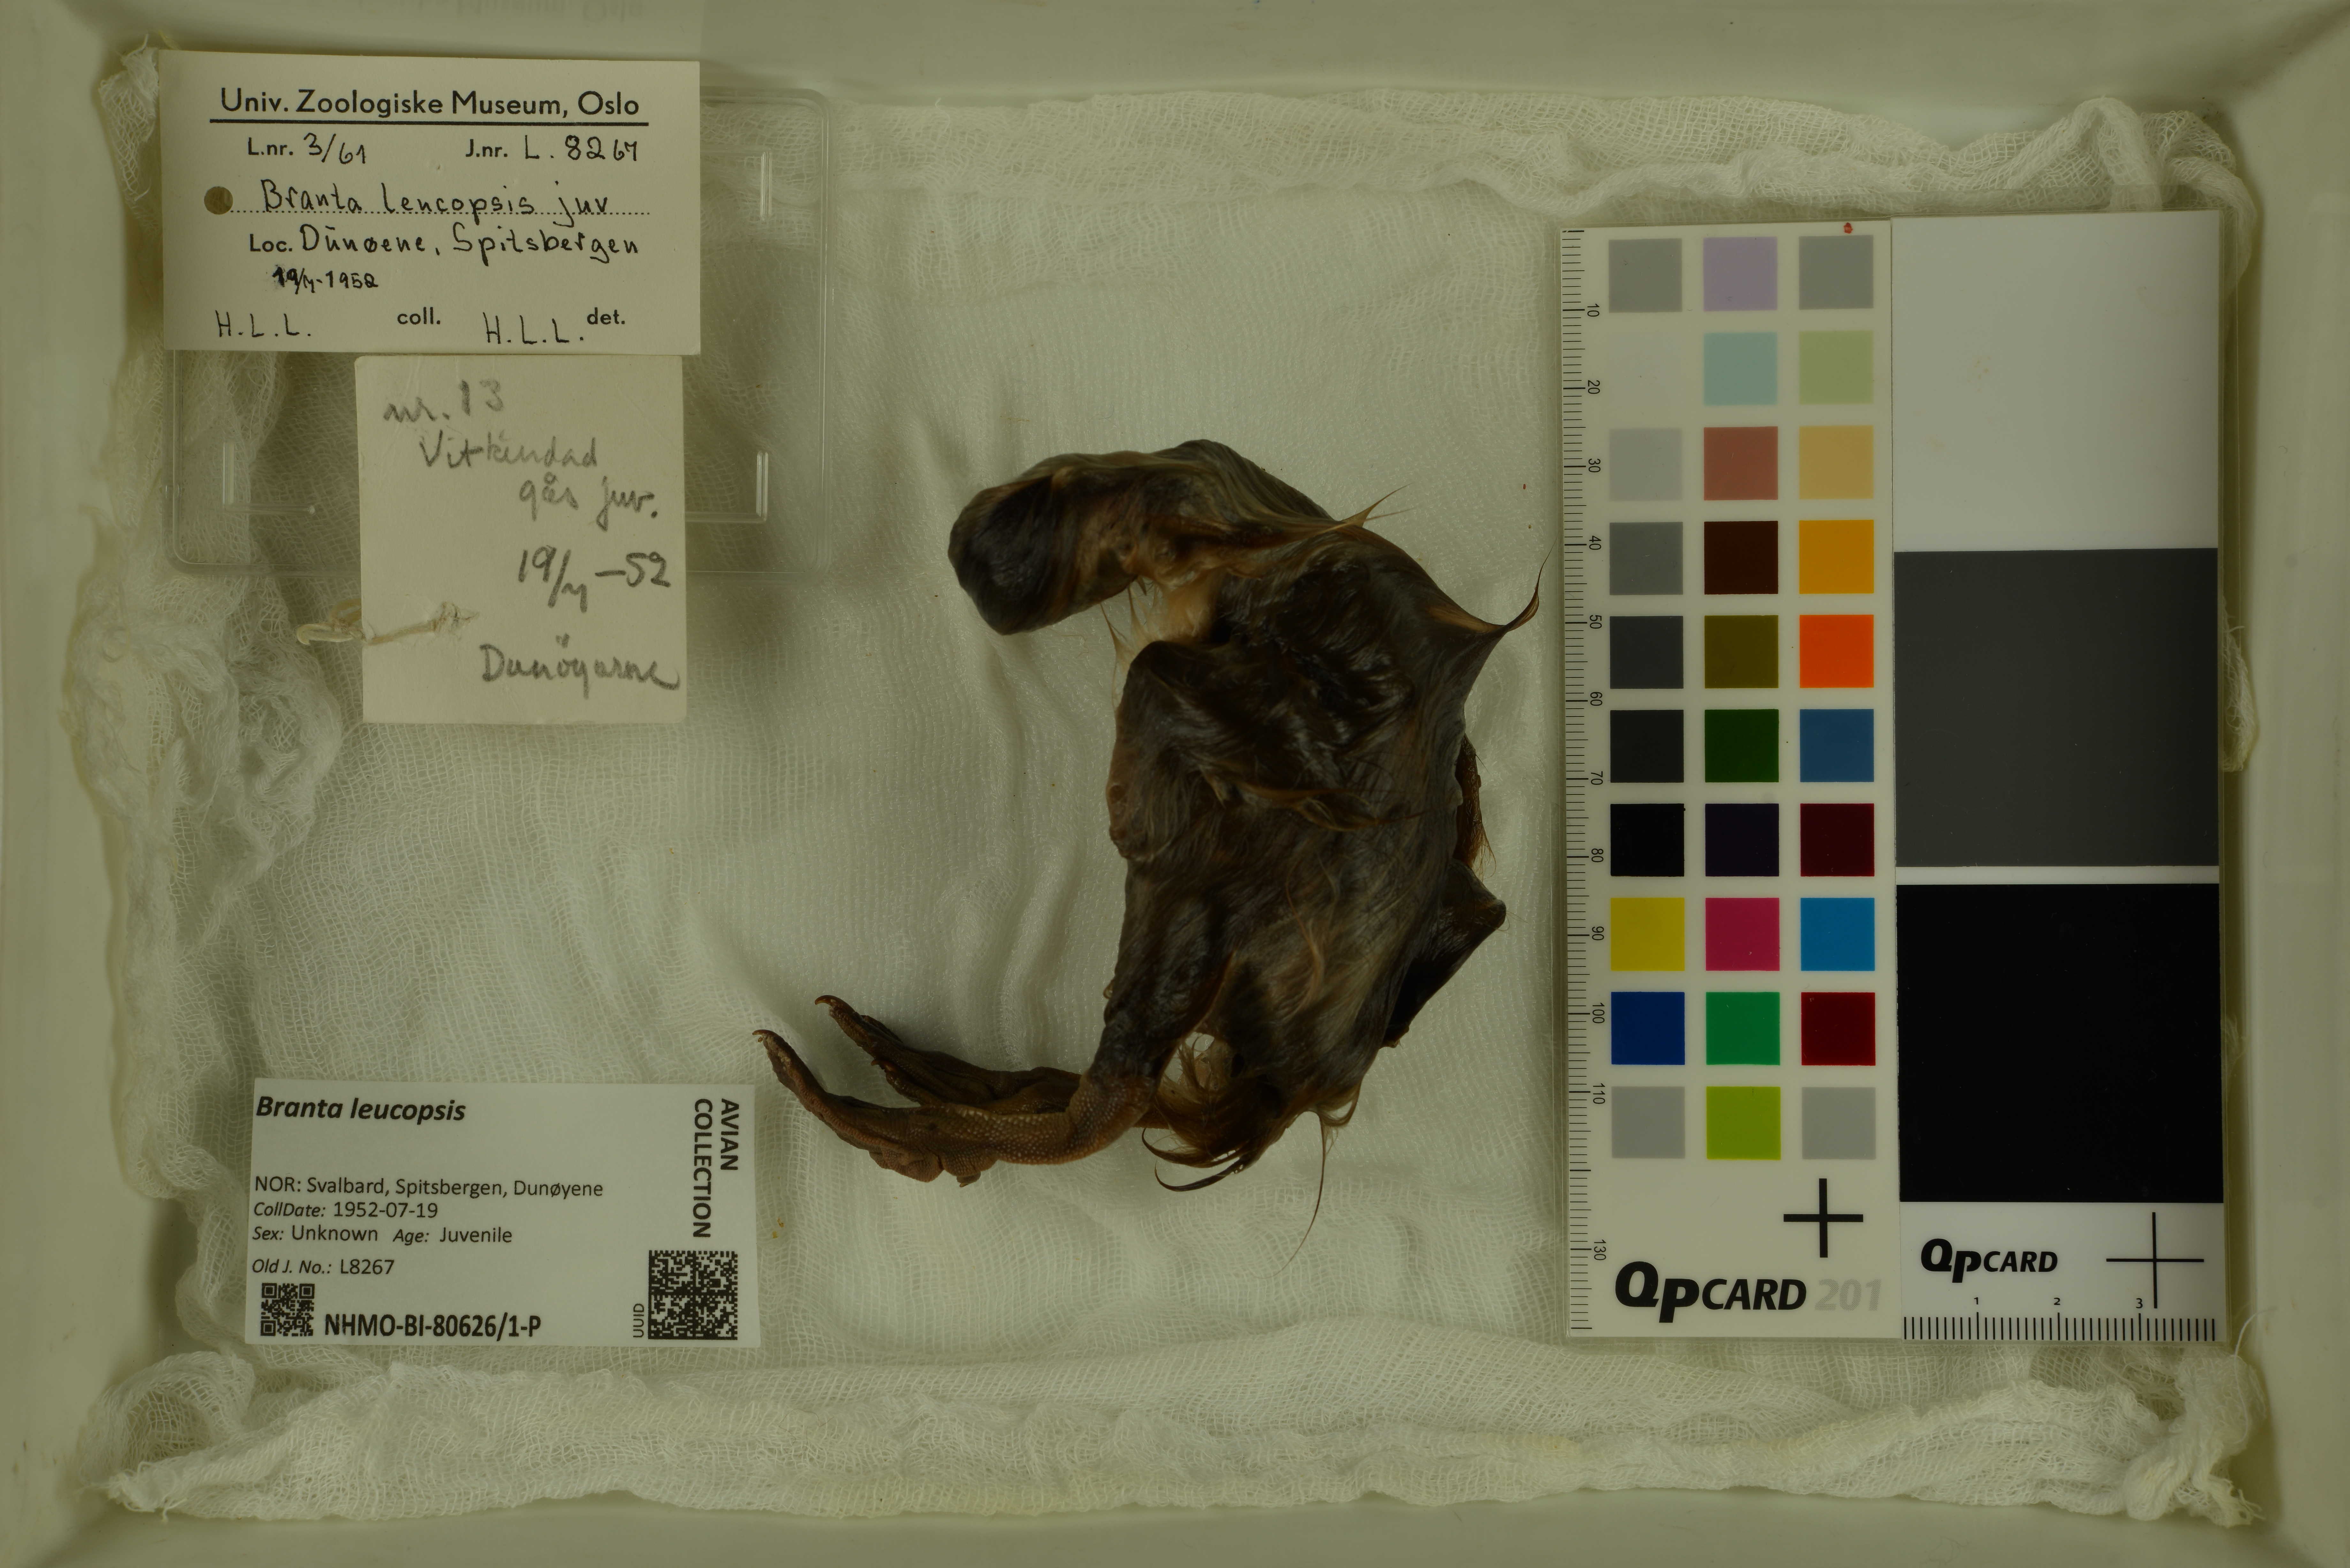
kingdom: Animalia
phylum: Chordata
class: Aves
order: Anseriformes
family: Anatidae
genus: Branta
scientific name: Branta leucopsis
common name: Barnacle goose
